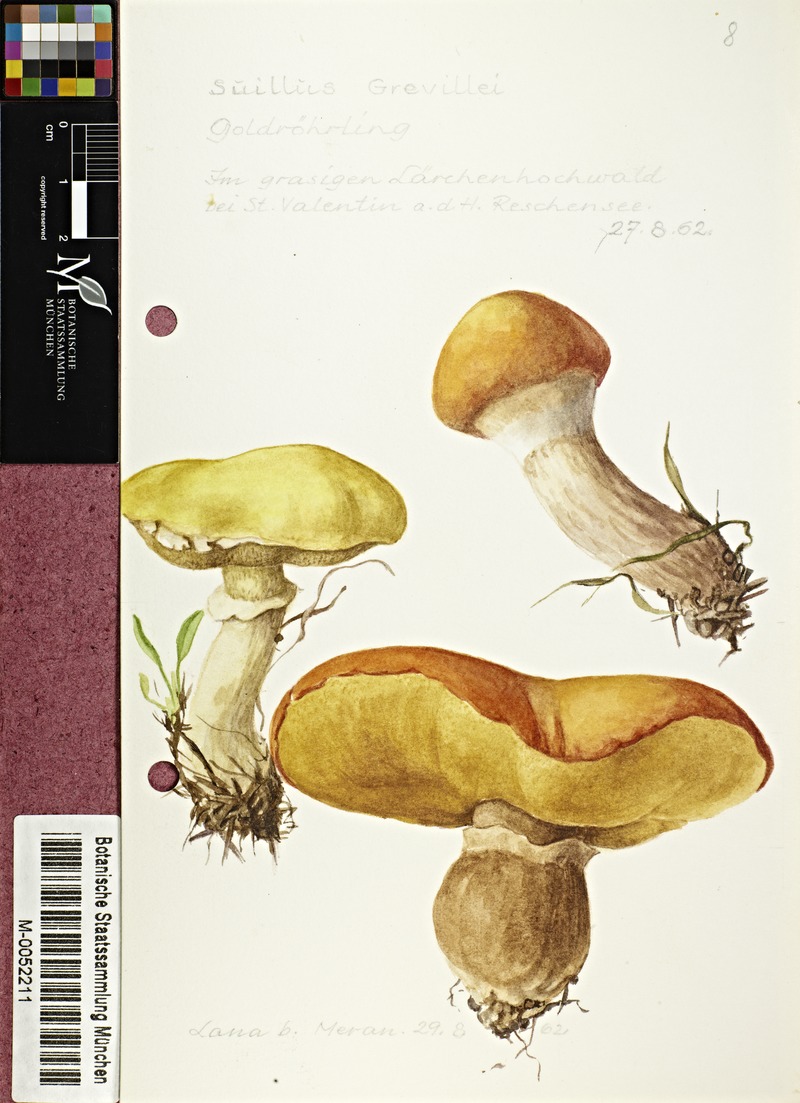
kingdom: Fungi
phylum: Basidiomycota
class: Agaricomycetes
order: Boletales
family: Suillaceae
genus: Suillus
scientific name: Suillus grevillei
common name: Larch bolete
